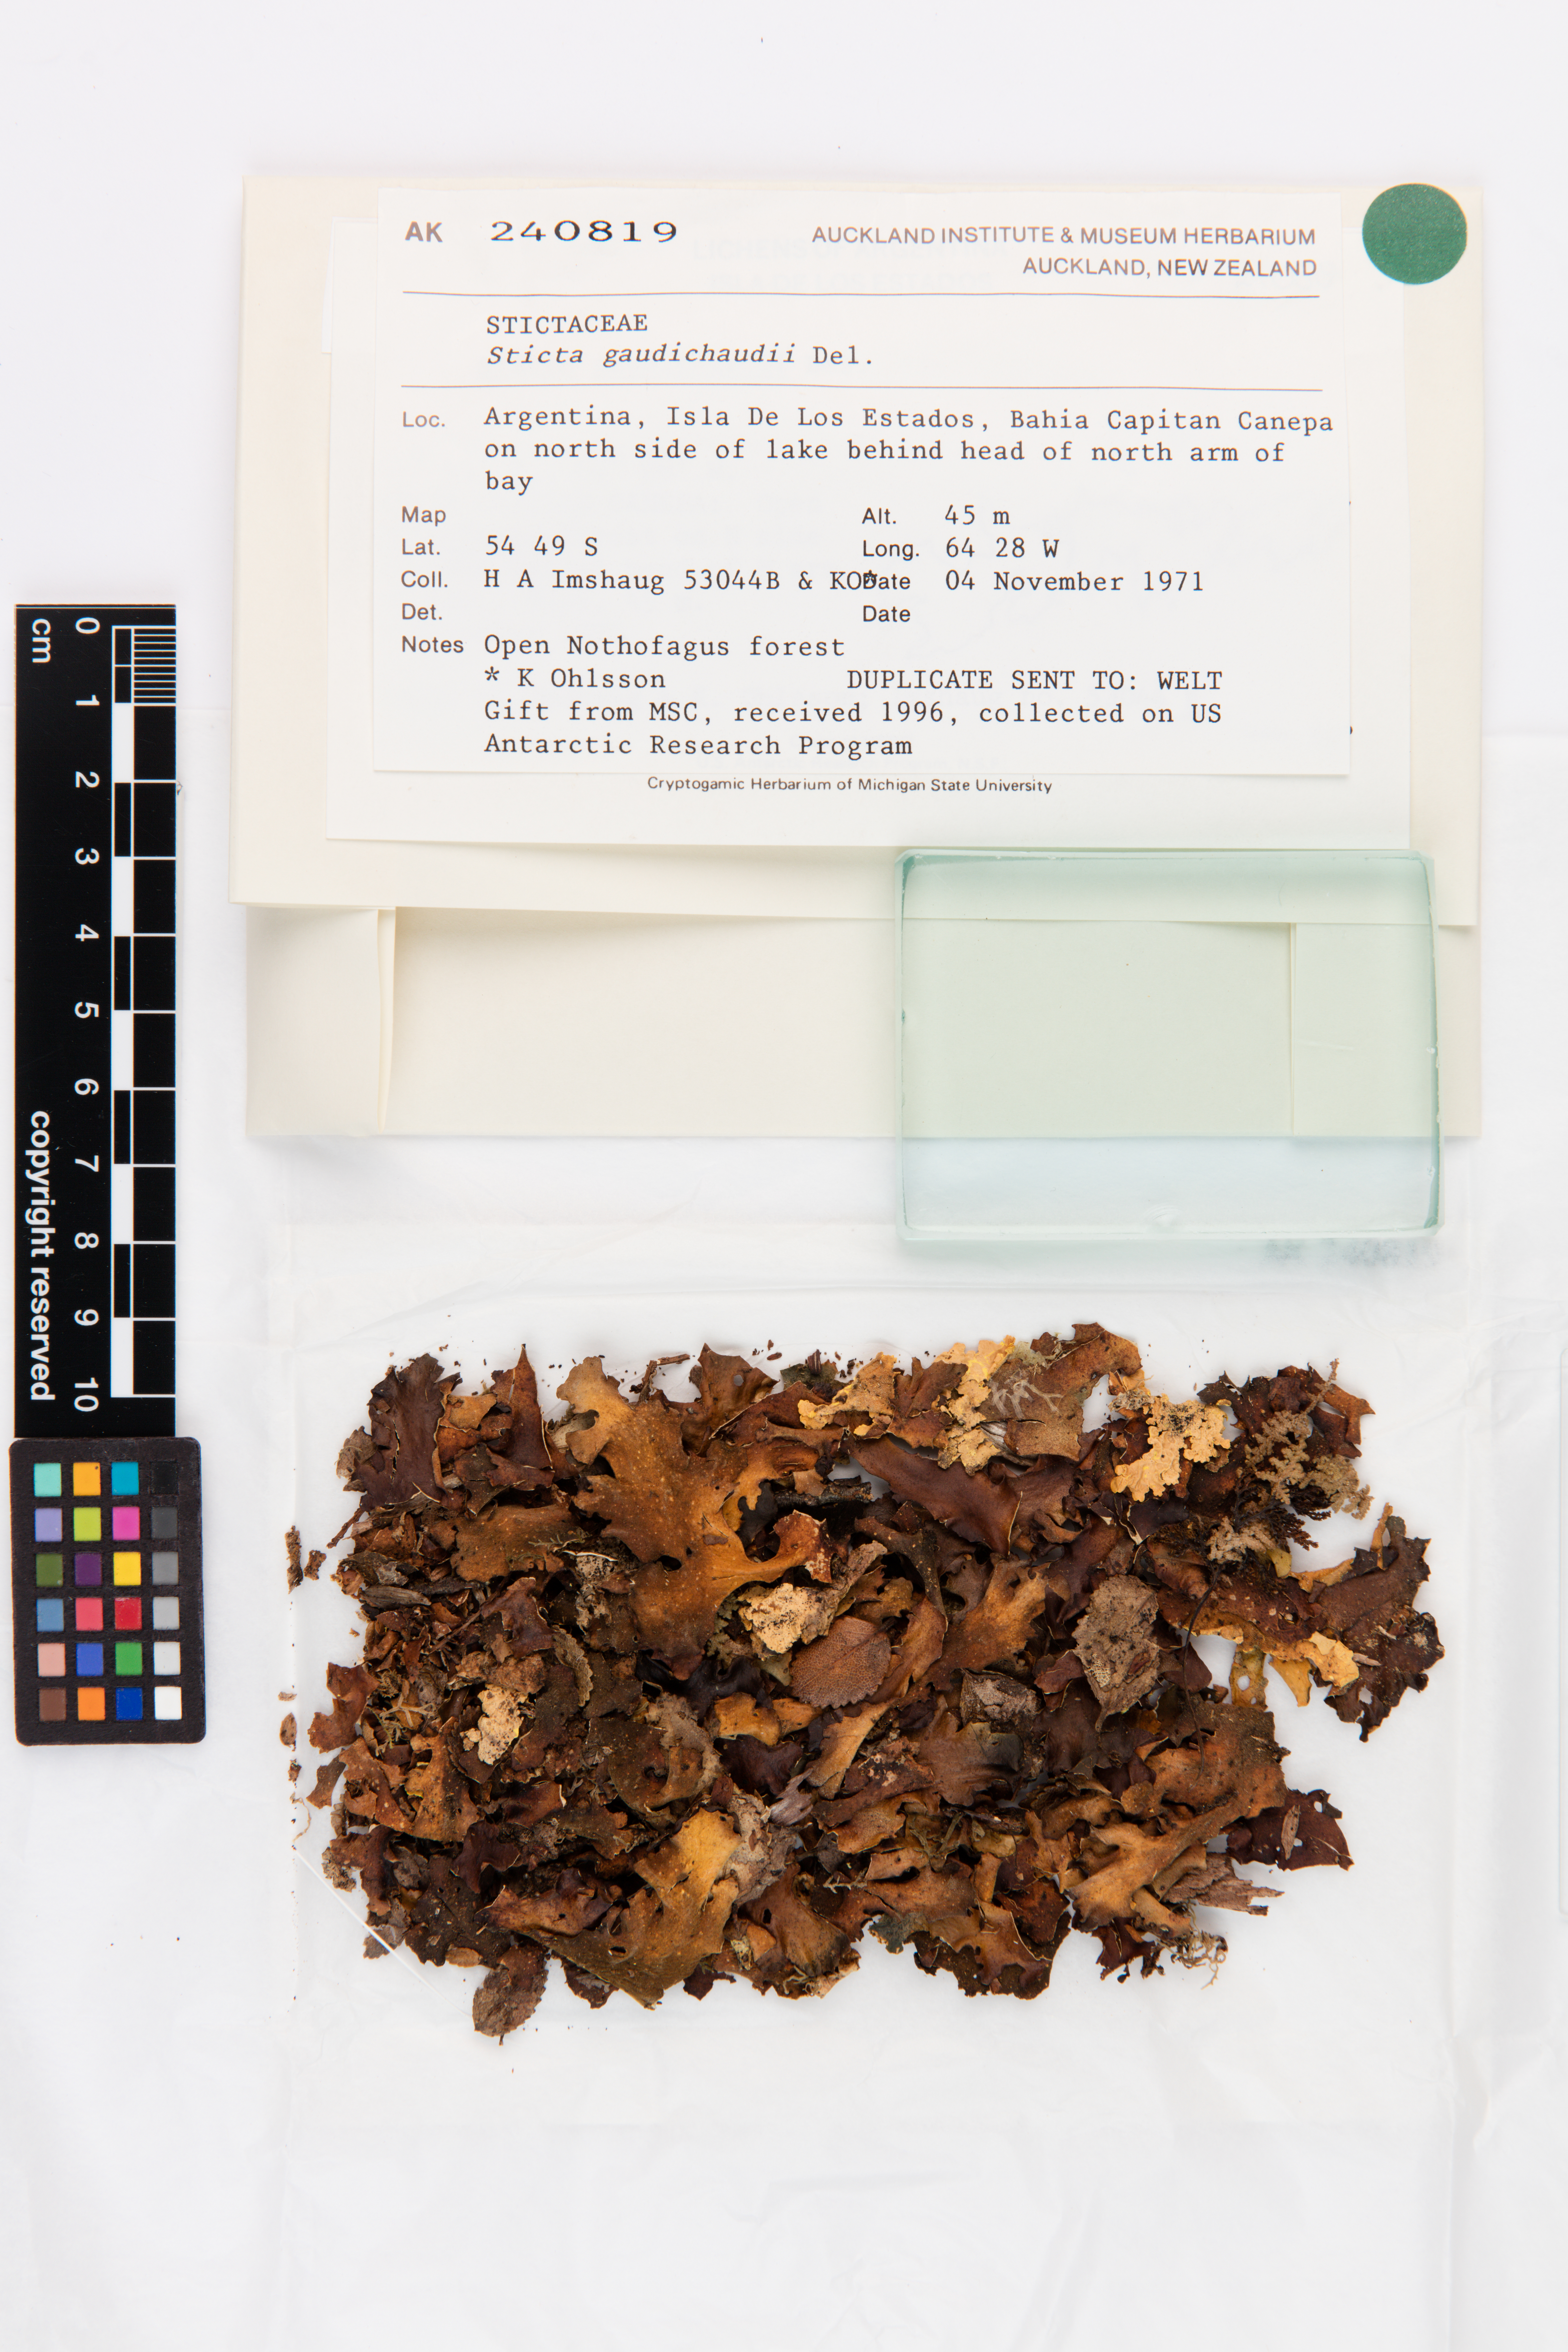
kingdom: Fungi
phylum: Ascomycota
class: Lecanoromycetes
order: Peltigerales
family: Lobariaceae
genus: Sticta
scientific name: Sticta gaudichaudii
